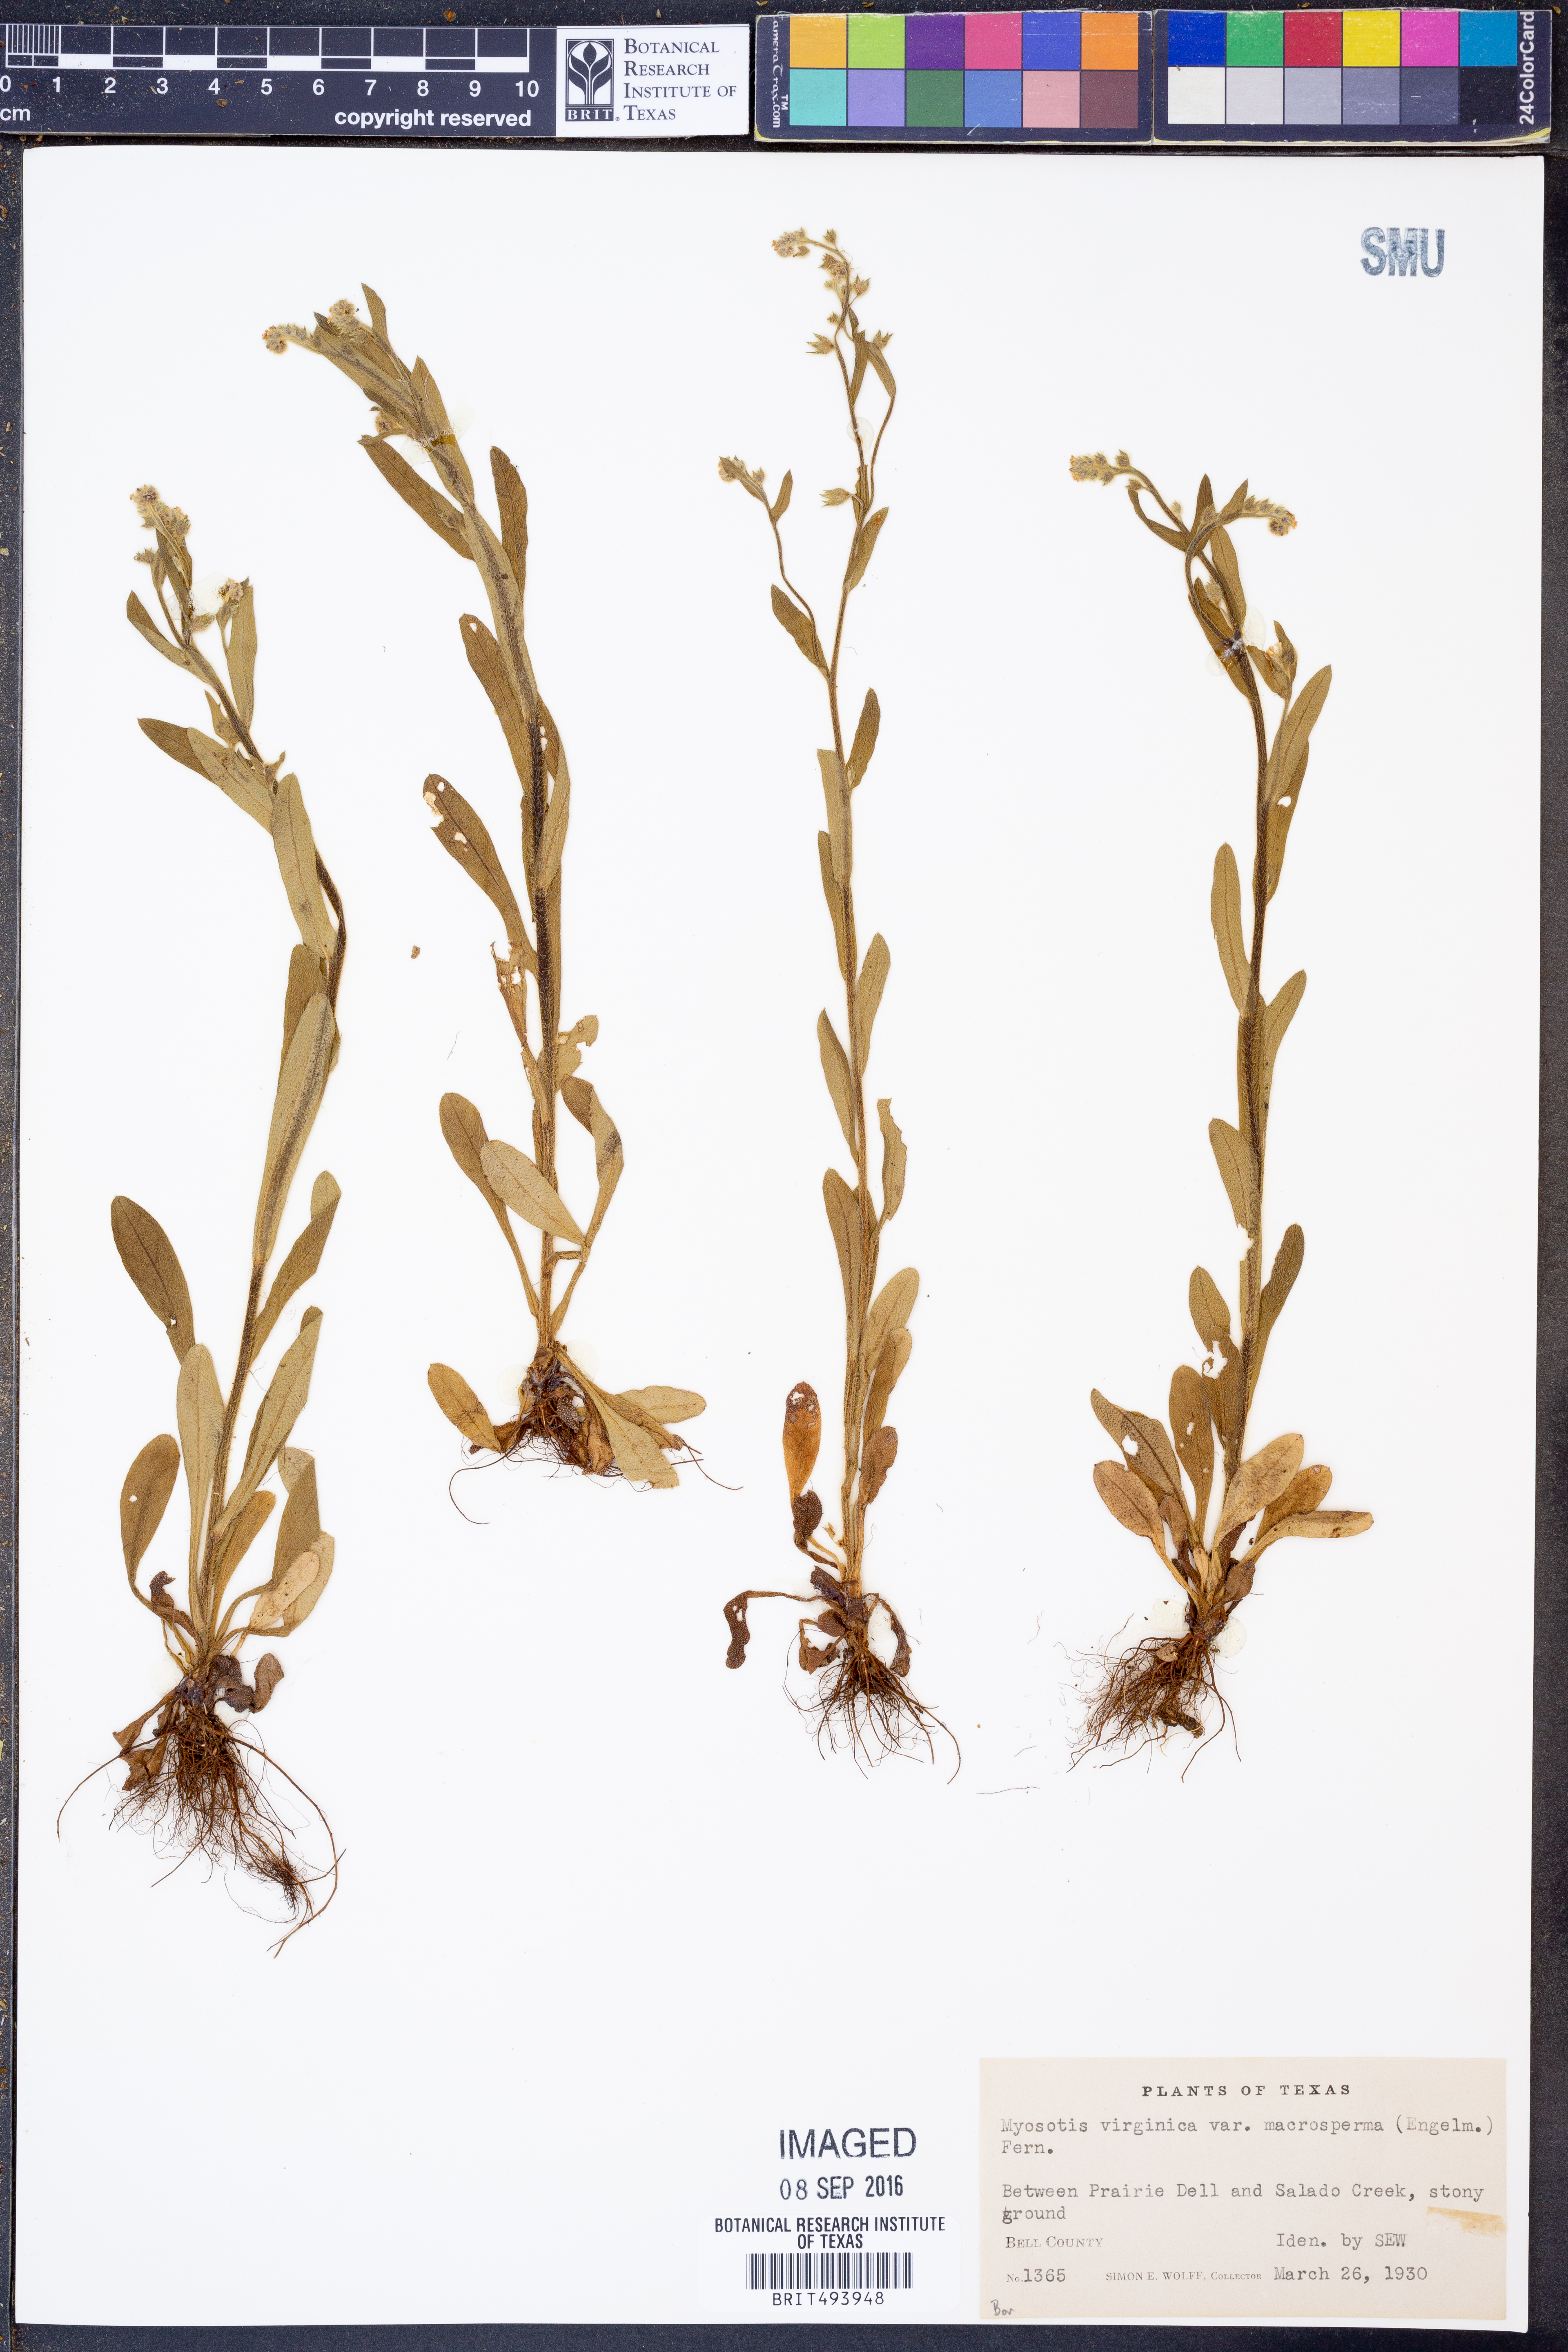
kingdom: Plantae
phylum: Tracheophyta
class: Magnoliopsida
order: Boraginales
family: Boraginaceae
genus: Myosotis
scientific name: Myosotis macrosperma
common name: Large-seed forget-me-not
